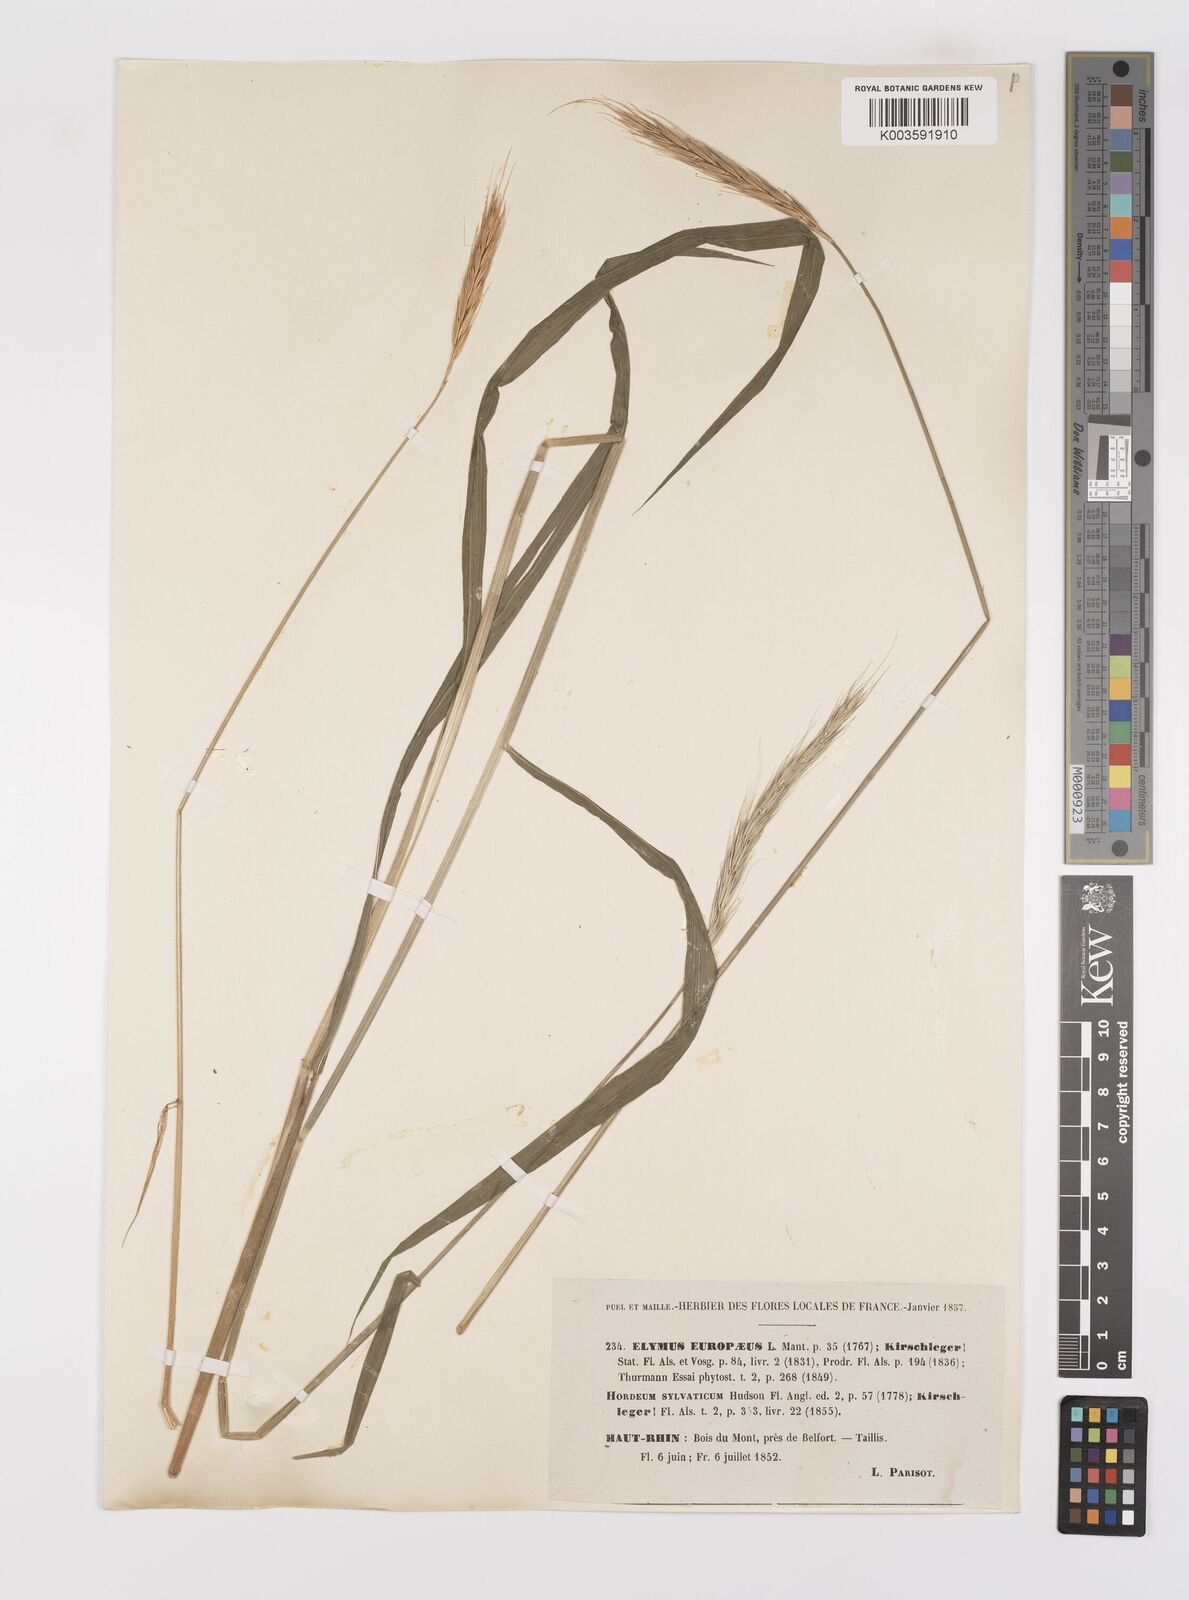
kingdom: Plantae
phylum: Tracheophyta
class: Liliopsida
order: Poales
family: Poaceae
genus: Hordelymus
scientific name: Hordelymus europaeus
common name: Wood-barley
